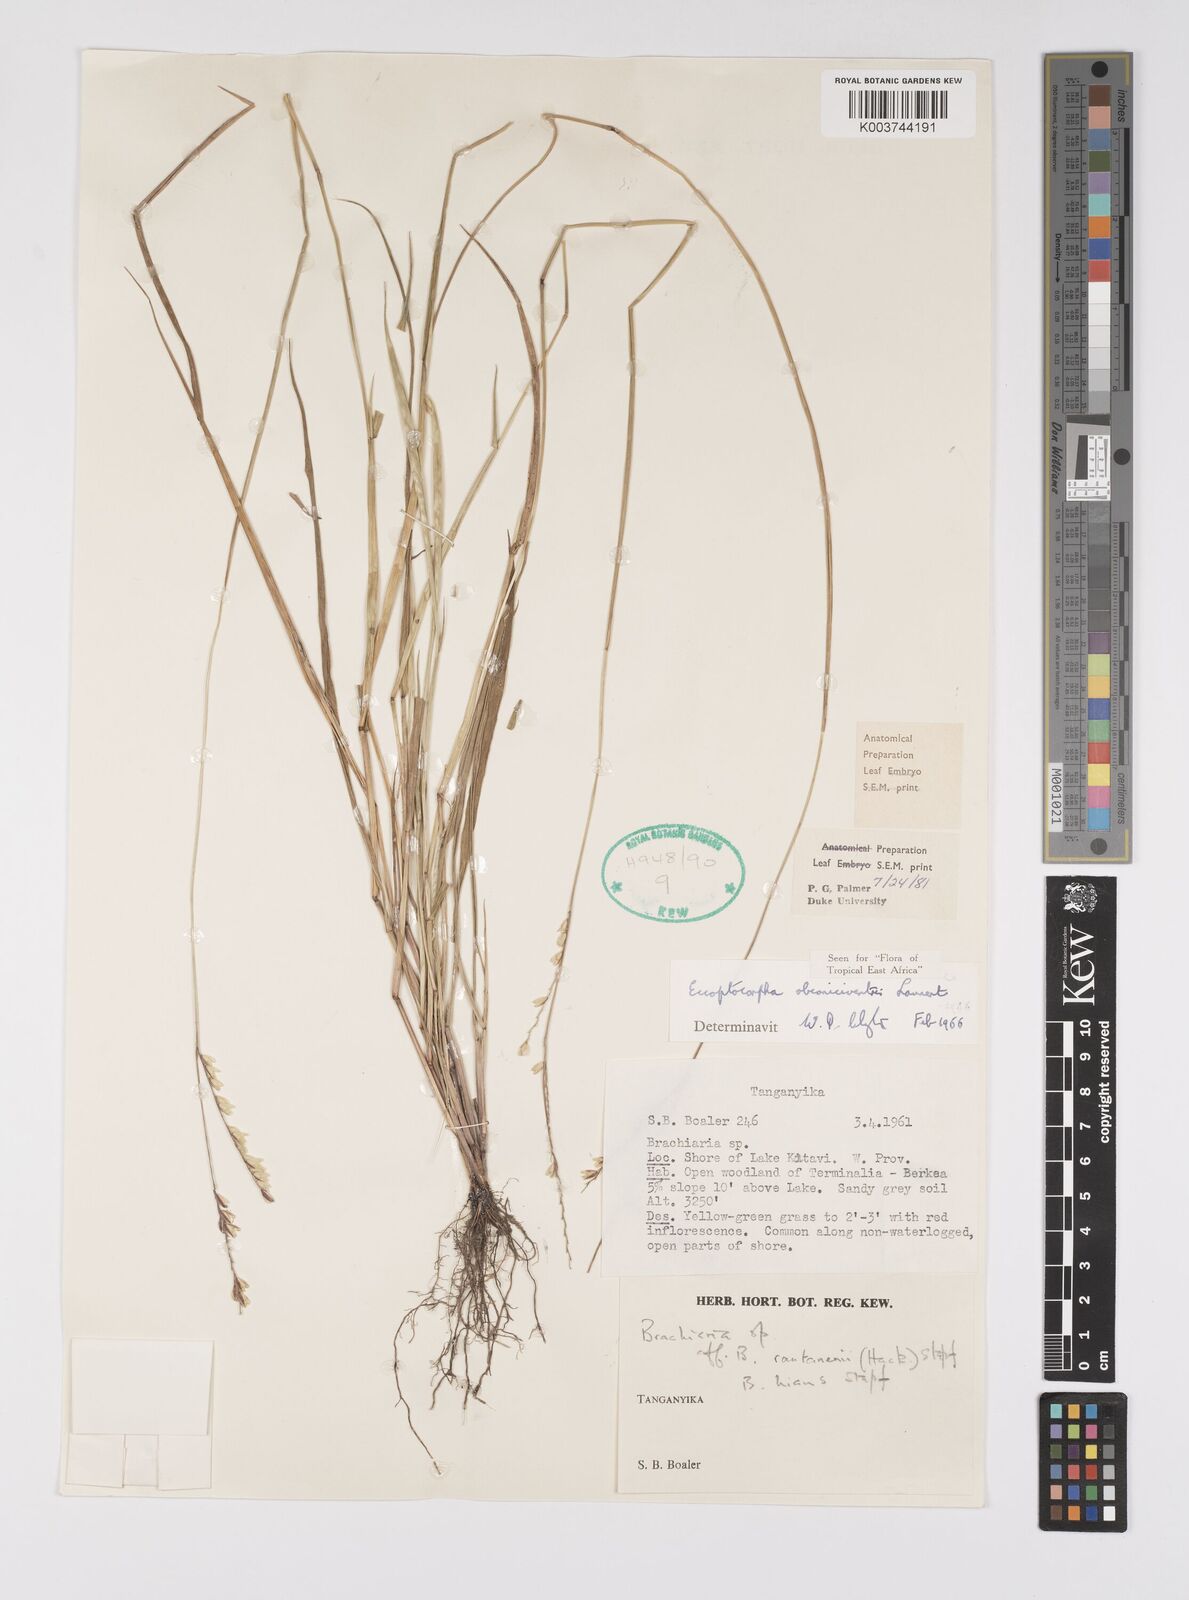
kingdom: Plantae
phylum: Tracheophyta
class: Liliopsida
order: Poales
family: Poaceae
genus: Eccoptocarpha
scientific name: Eccoptocarpha obconiciventris
